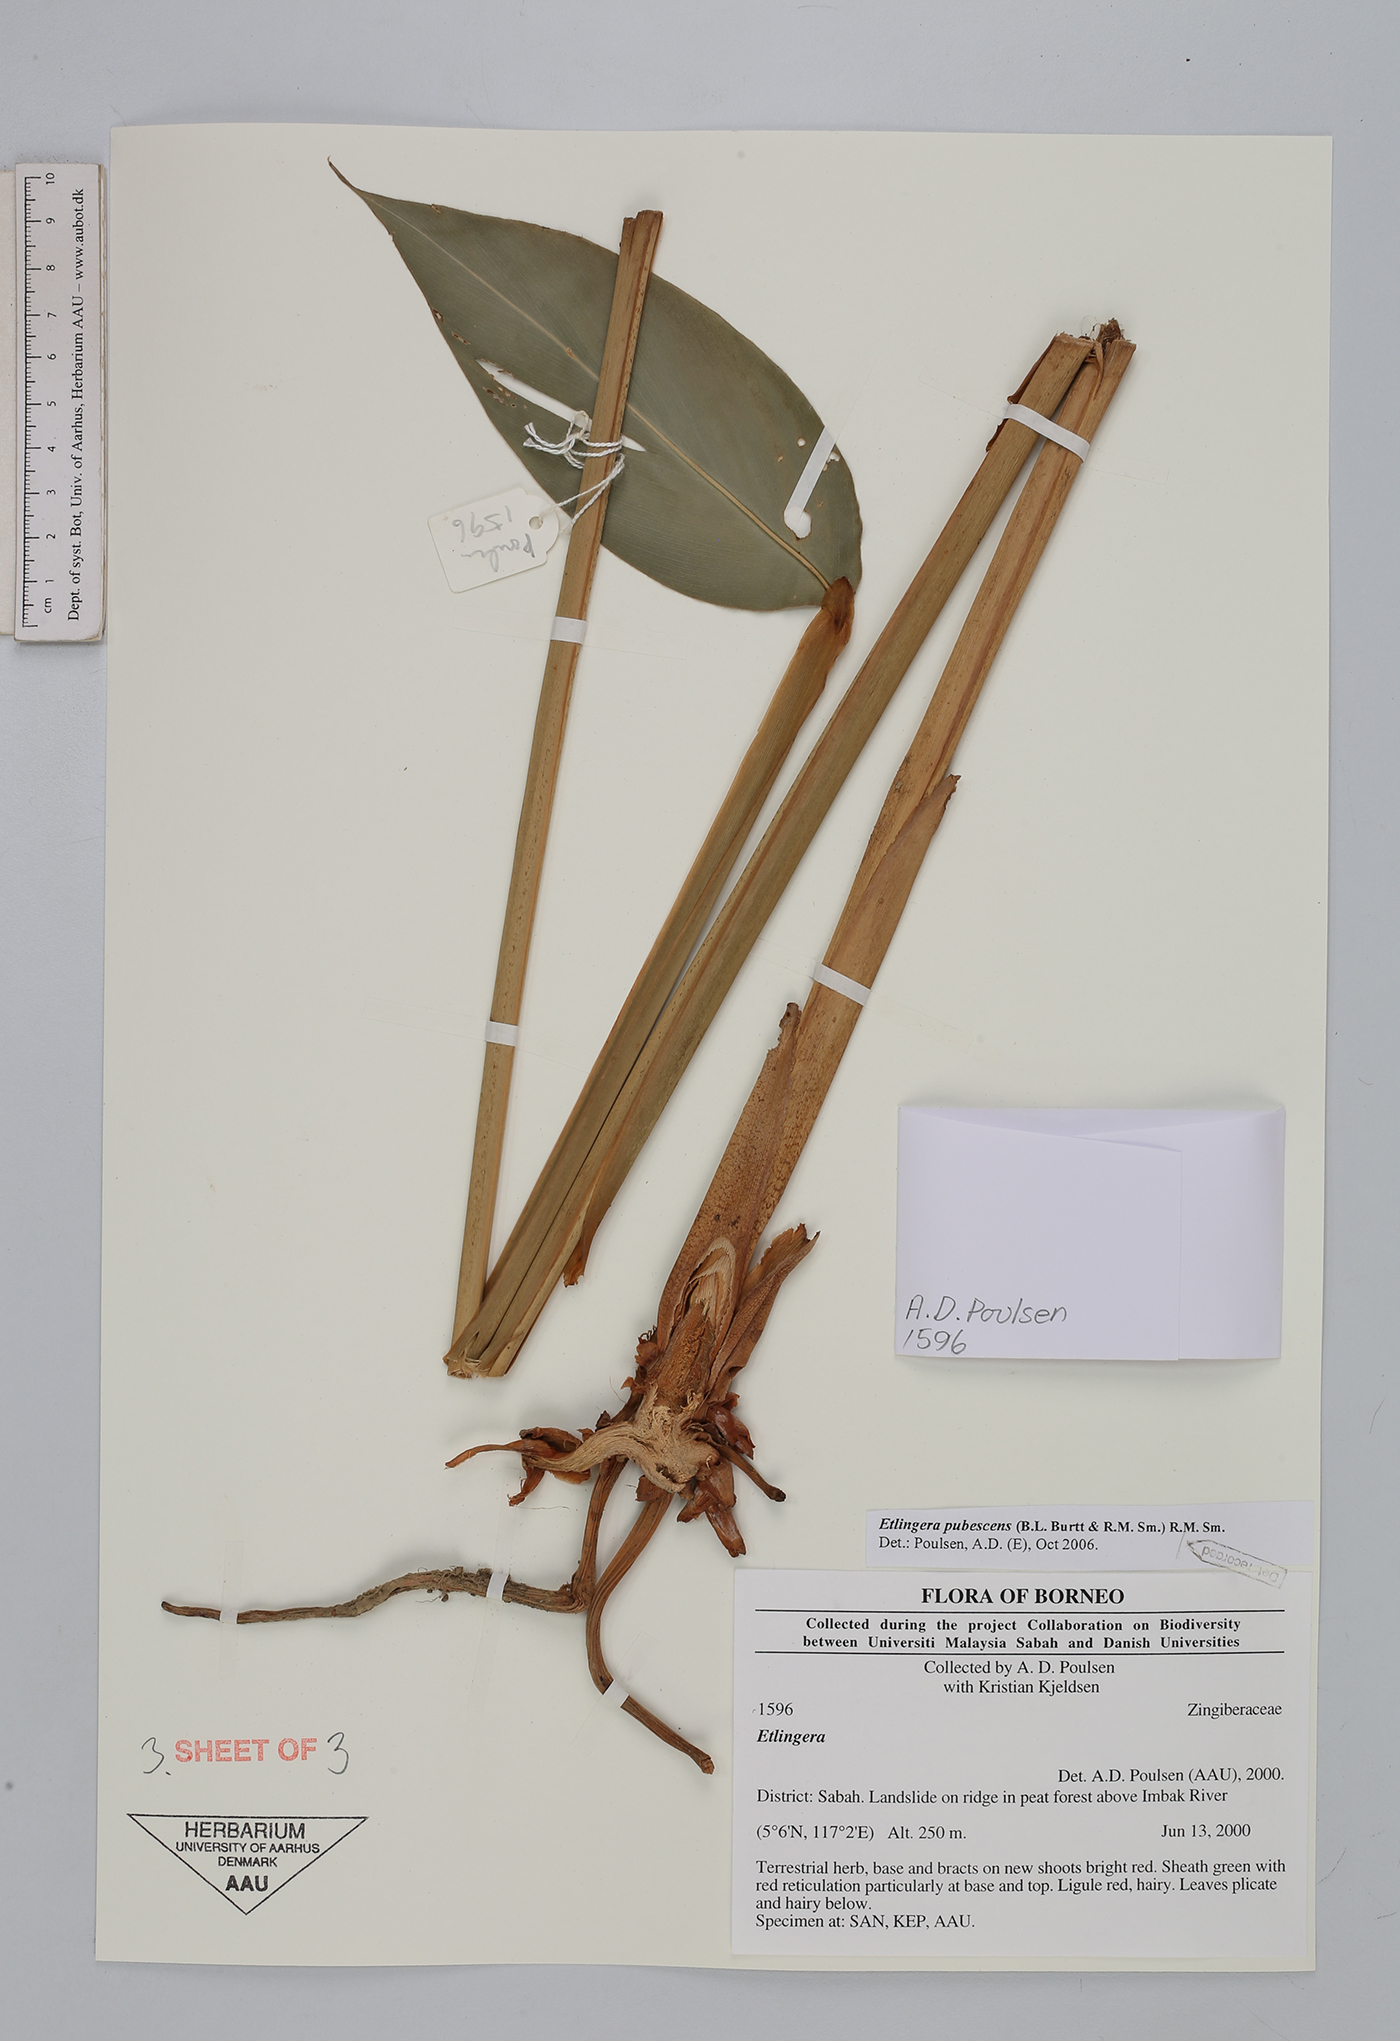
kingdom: Plantae
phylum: Tracheophyta
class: Liliopsida
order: Zingiberales
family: Zingiberaceae
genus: Etlingera
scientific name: Etlingera pubescens
